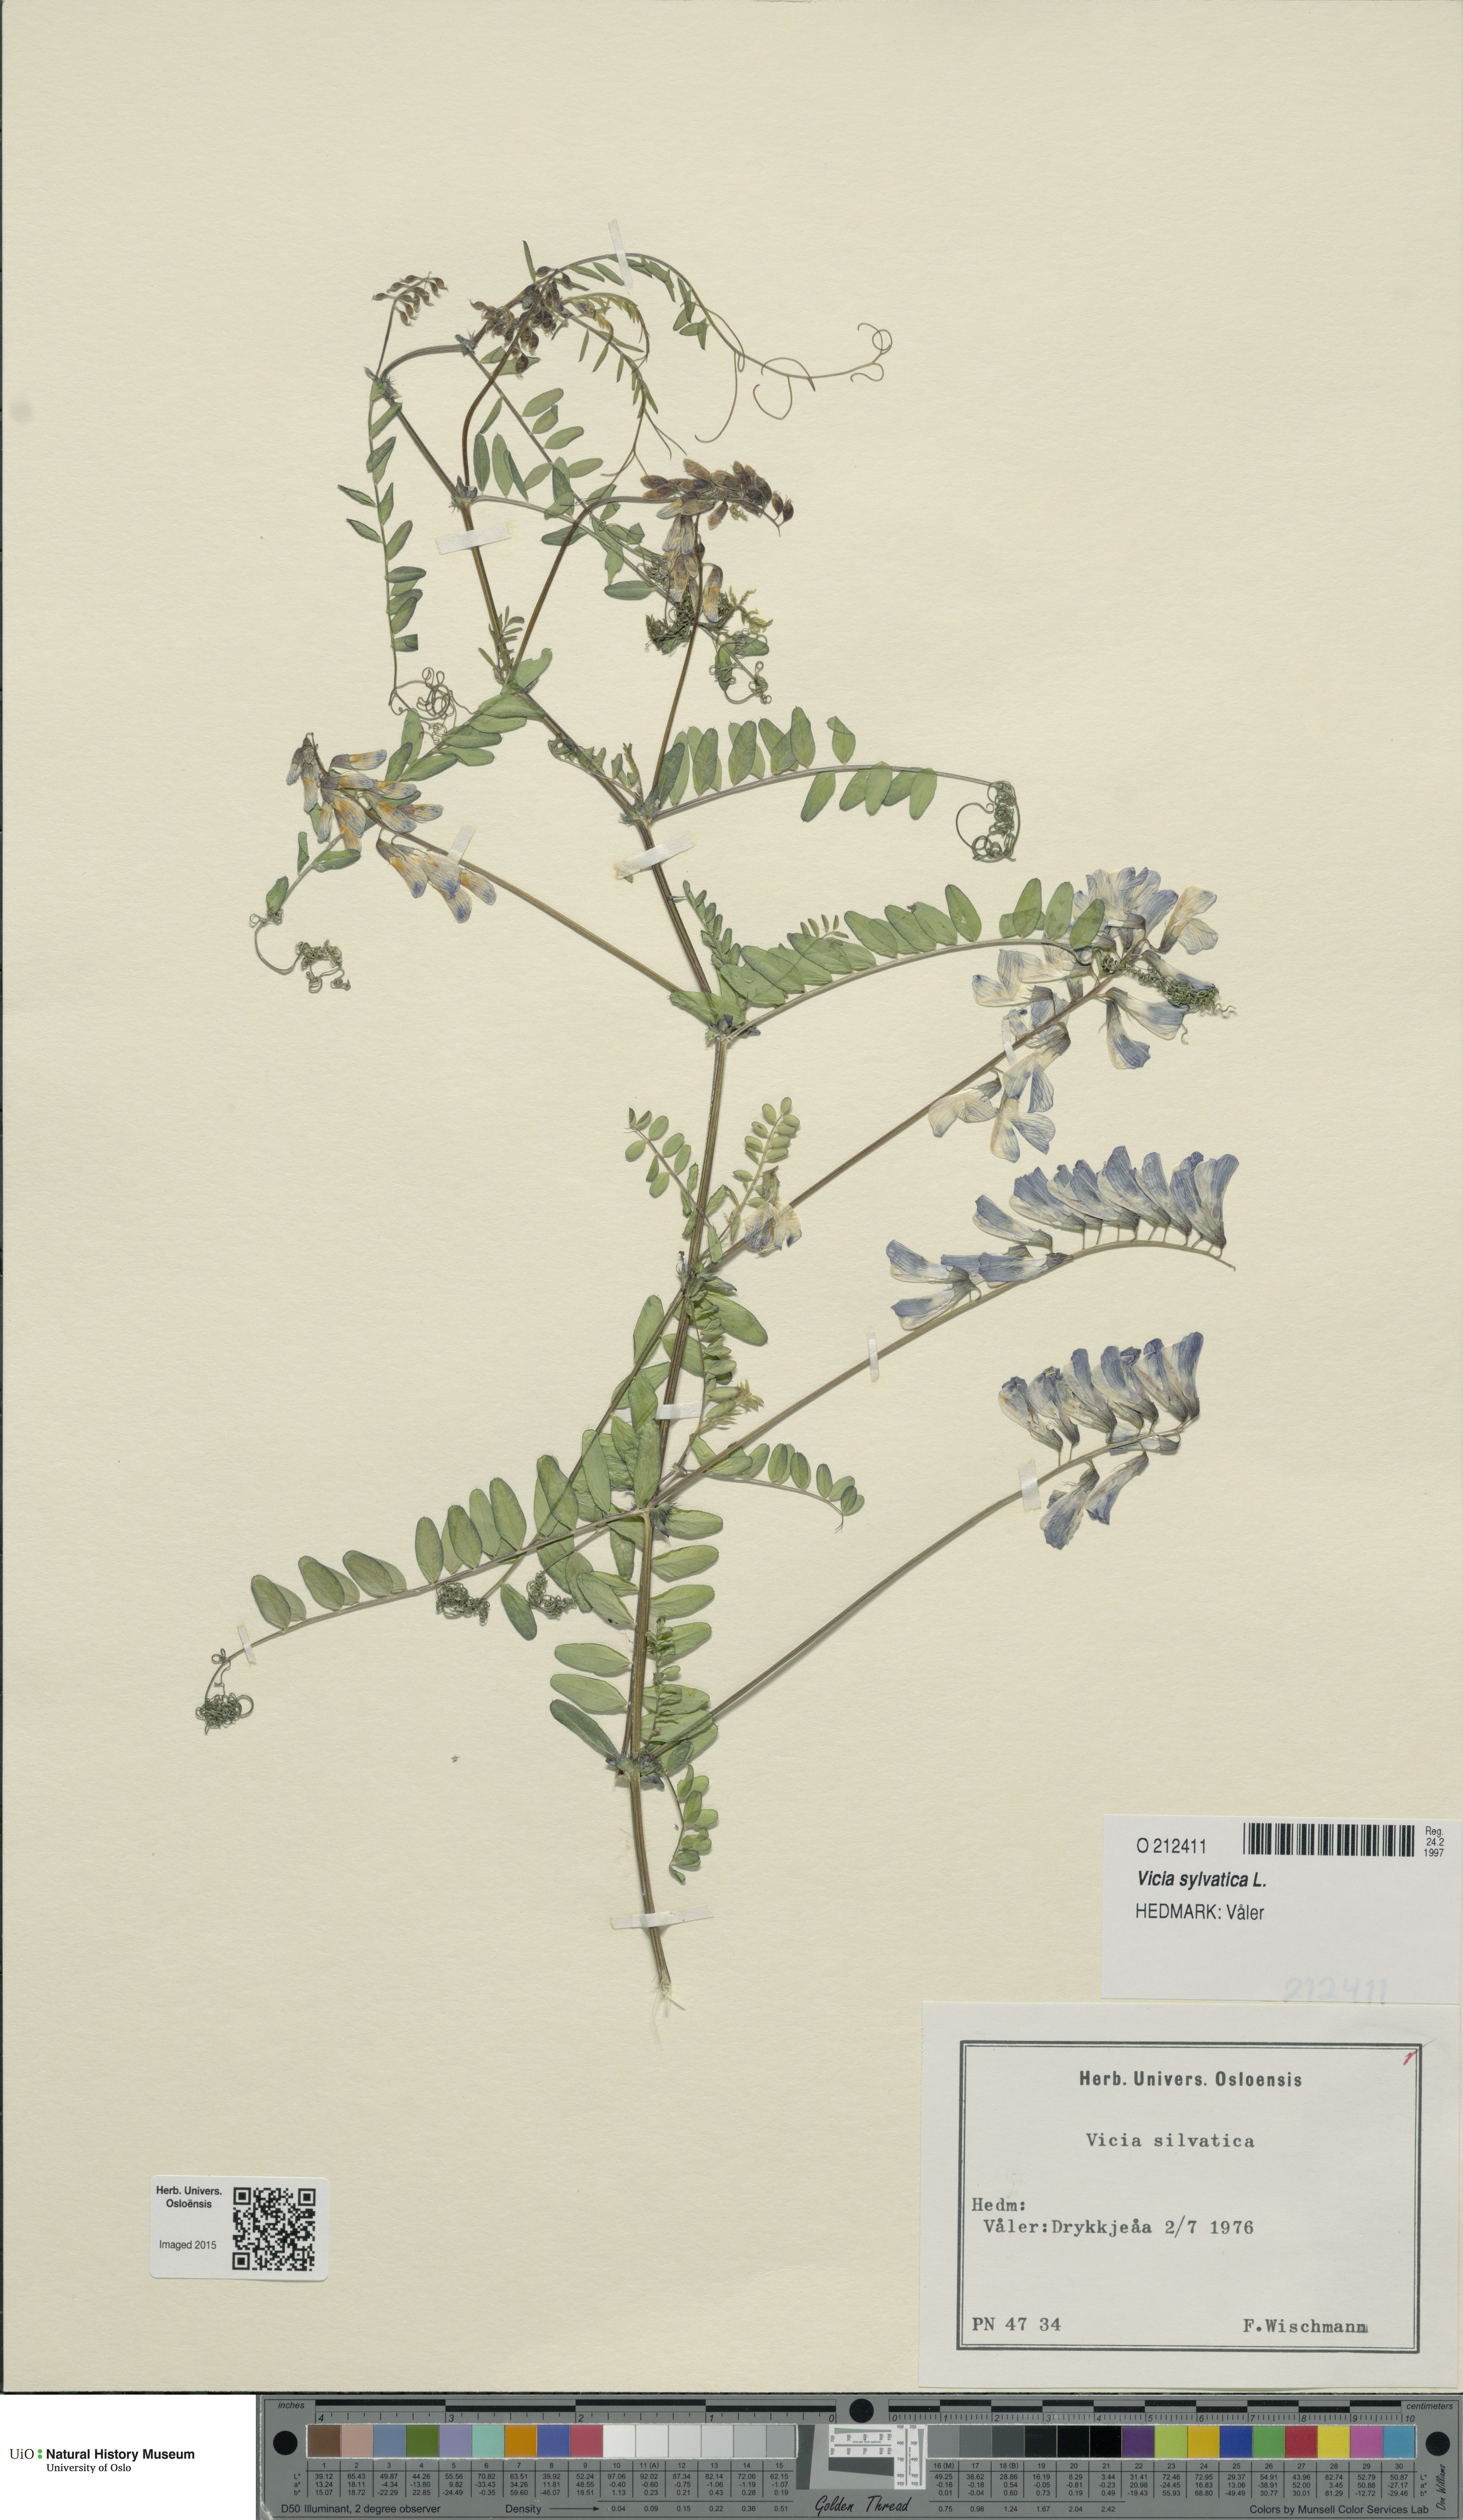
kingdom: Plantae
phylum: Tracheophyta
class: Magnoliopsida
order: Fabales
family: Fabaceae
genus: Vicia
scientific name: Vicia sylvatica
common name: Wood vetch
